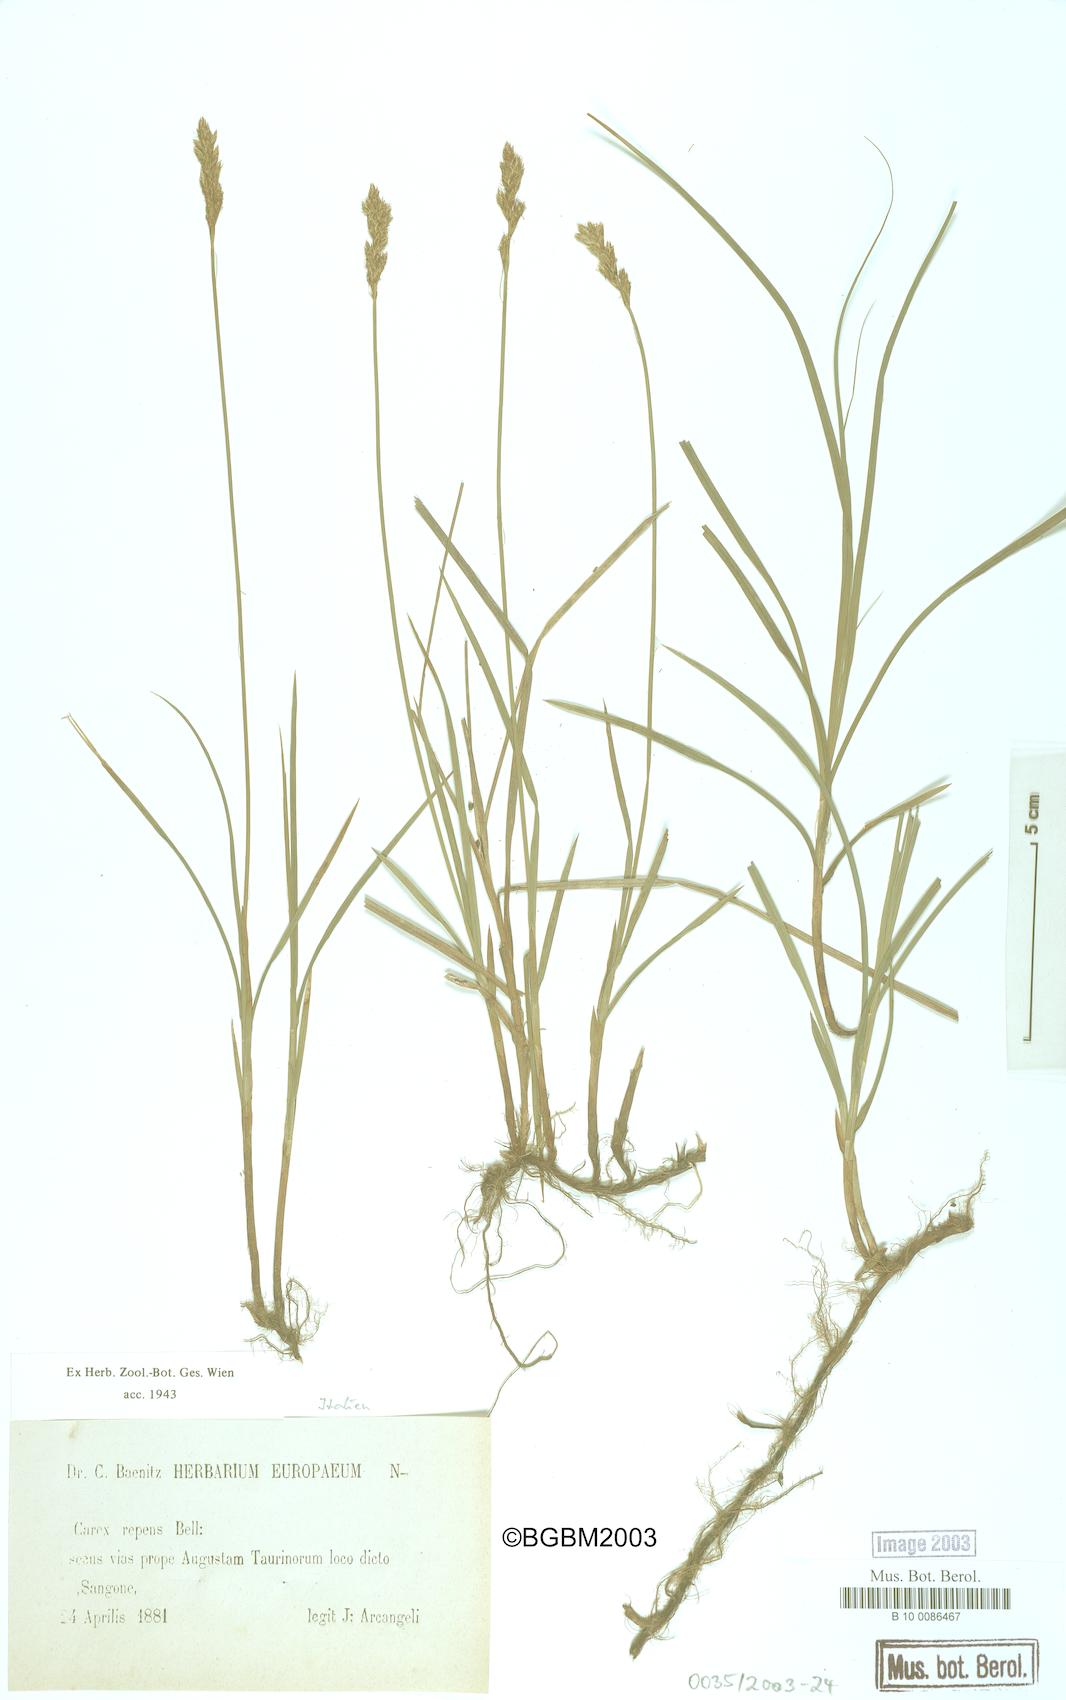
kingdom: Plantae
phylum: Tracheophyta
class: Liliopsida
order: Poales
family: Cyperaceae
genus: Carex
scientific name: Carex repens
